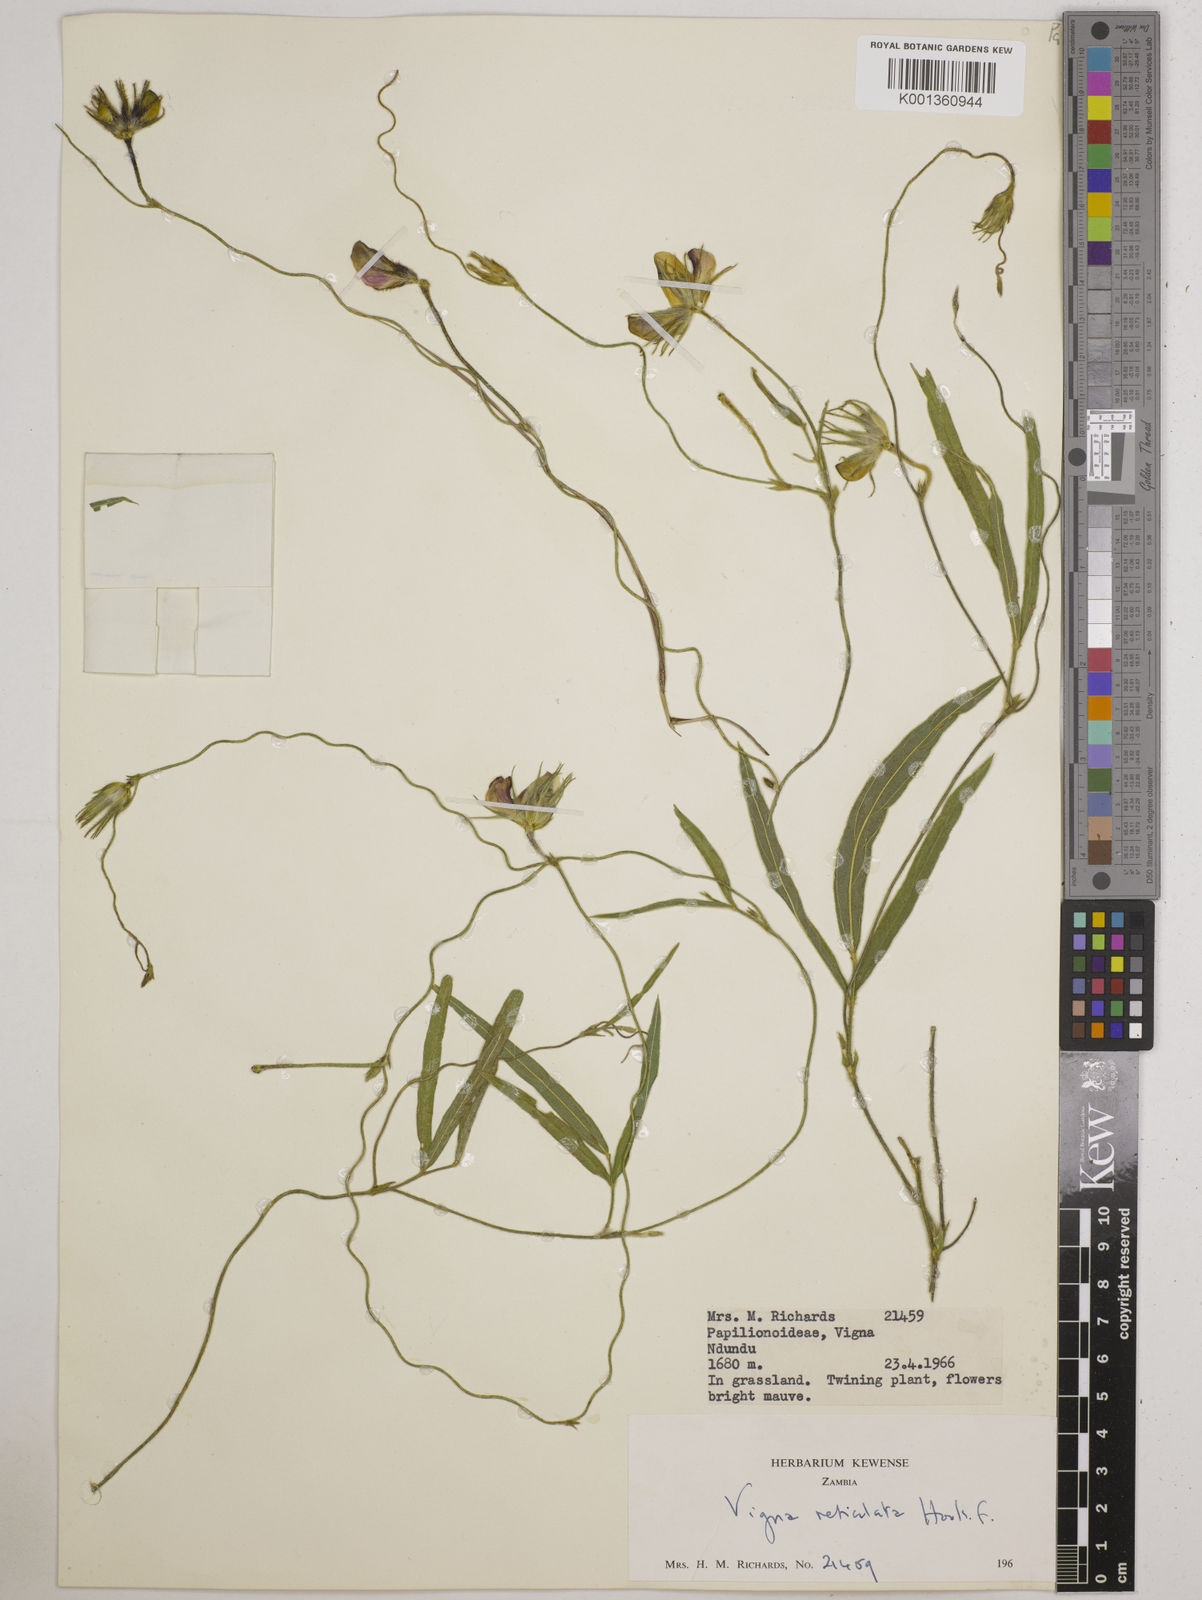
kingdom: Plantae
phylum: Tracheophyta
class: Magnoliopsida
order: Fabales
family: Fabaceae
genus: Vigna
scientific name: Vigna reticulata
